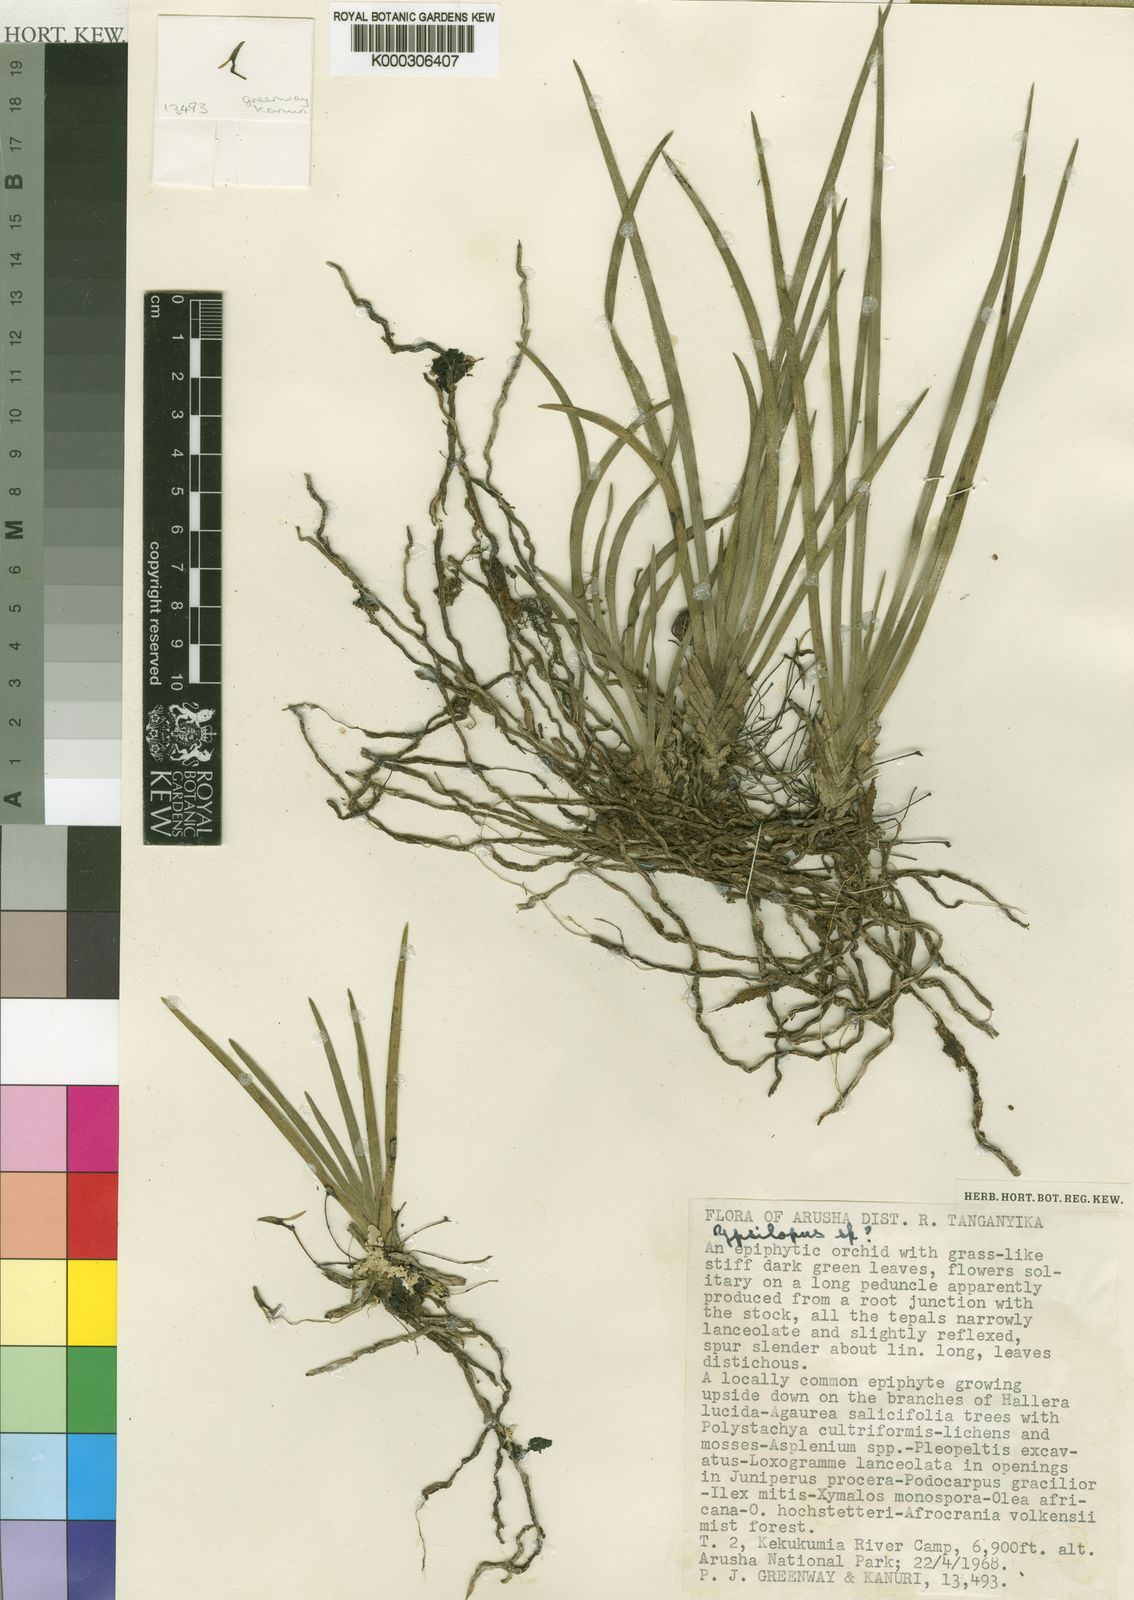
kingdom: Plantae
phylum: Tracheophyta
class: Liliopsida
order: Asparagales
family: Orchidaceae
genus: Ypsilopus
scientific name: Ypsilopus viridiflorus
